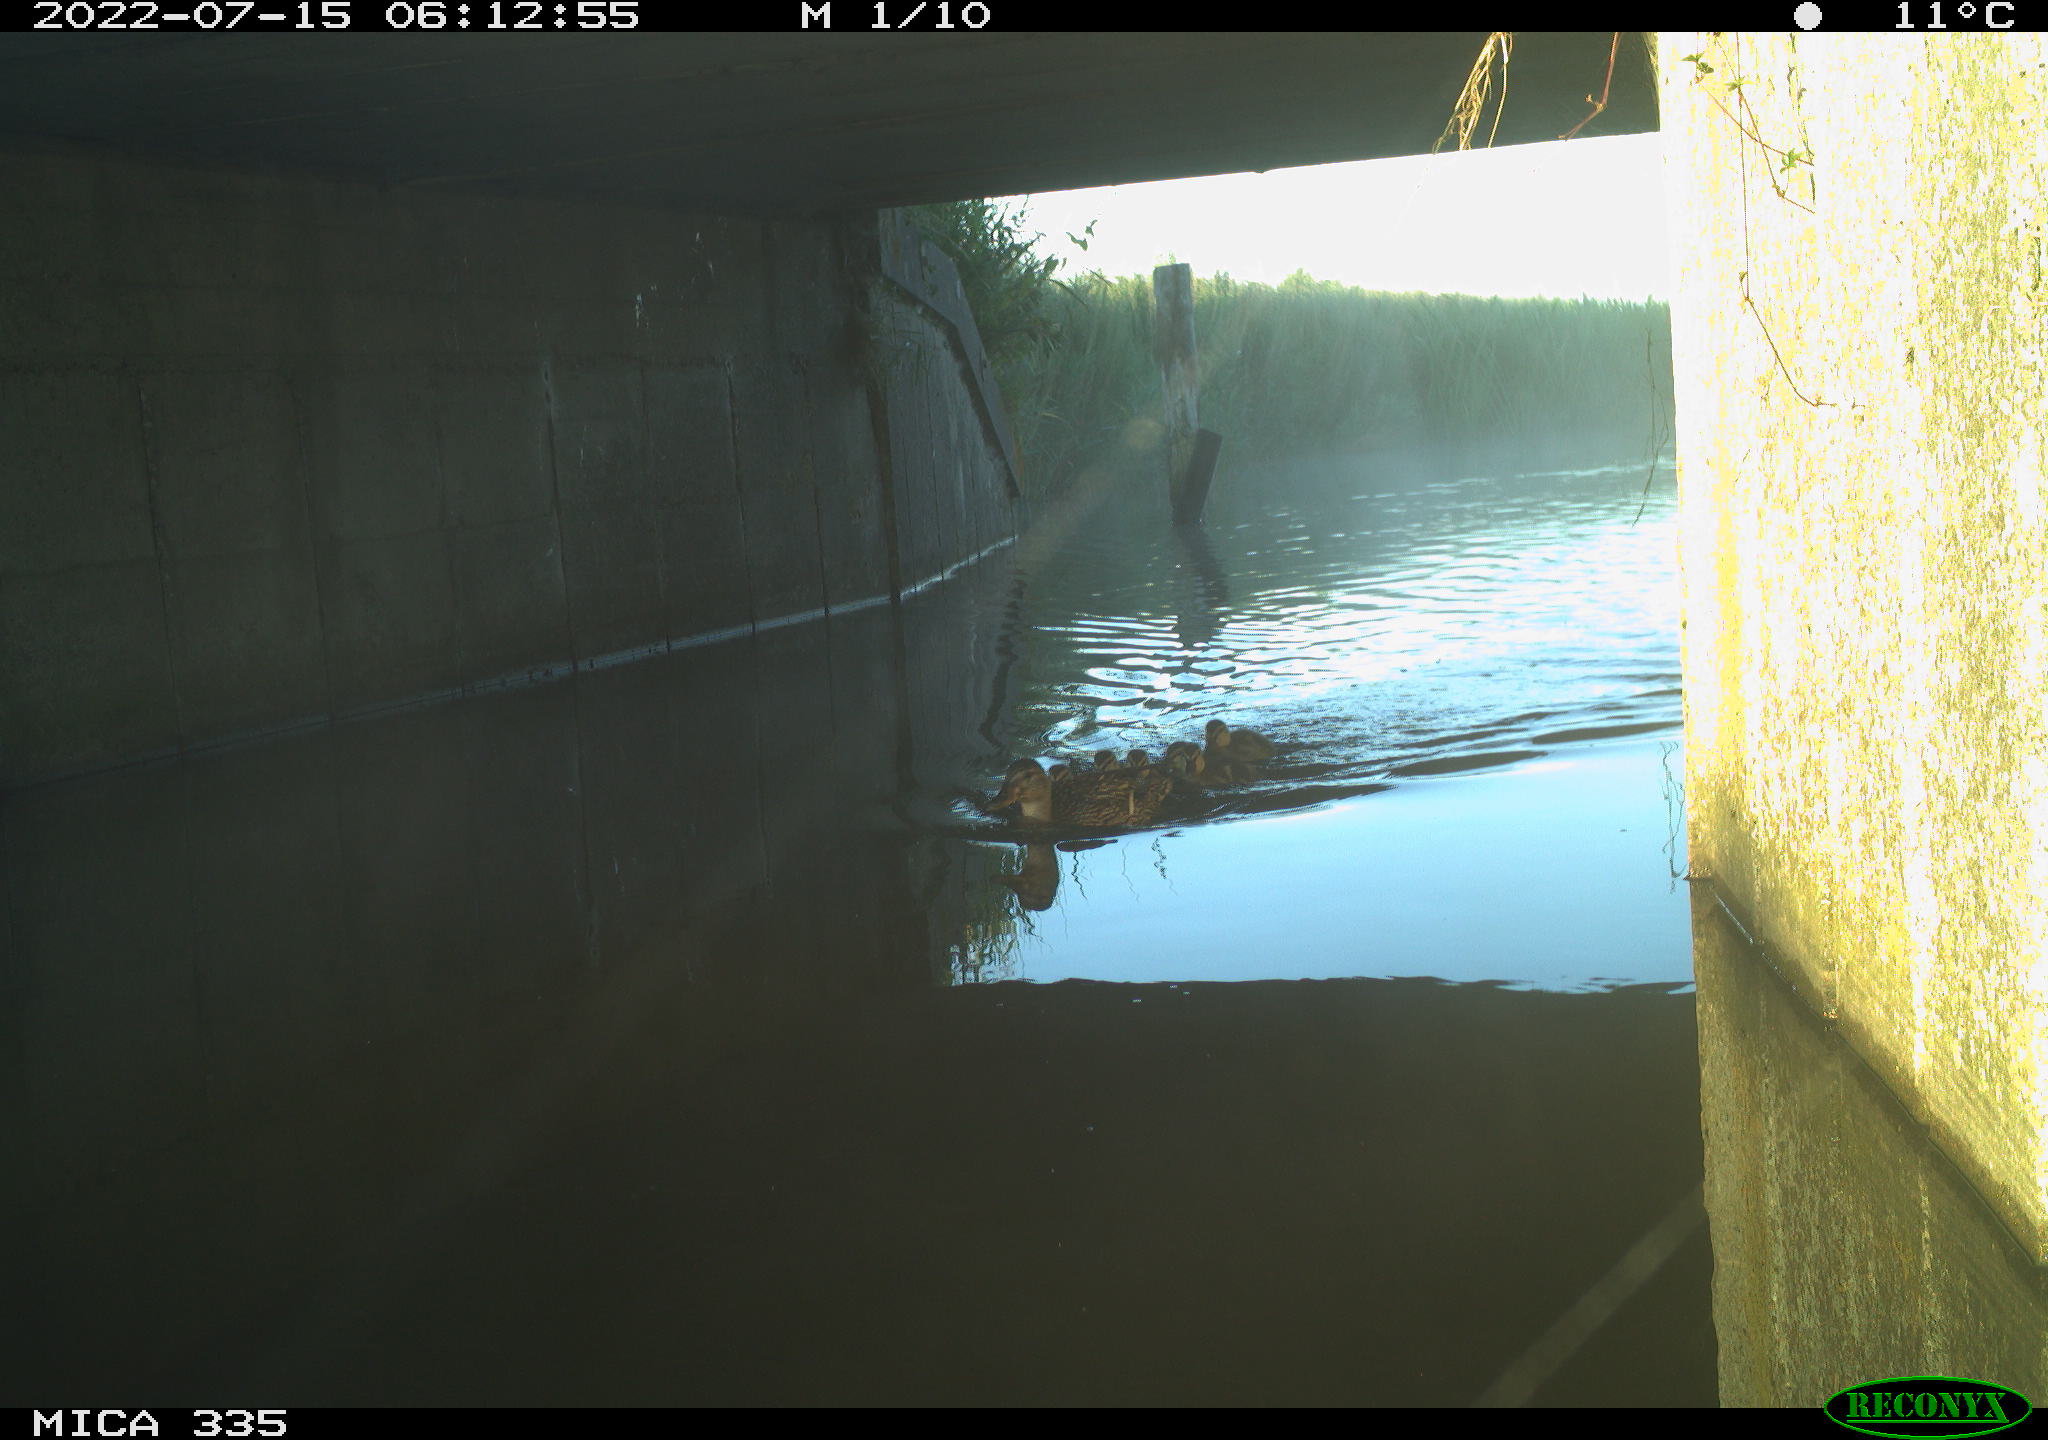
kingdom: Animalia
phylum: Chordata
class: Aves
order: Anseriformes
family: Anatidae
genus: Anas
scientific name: Anas platyrhynchos
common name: Mallard
